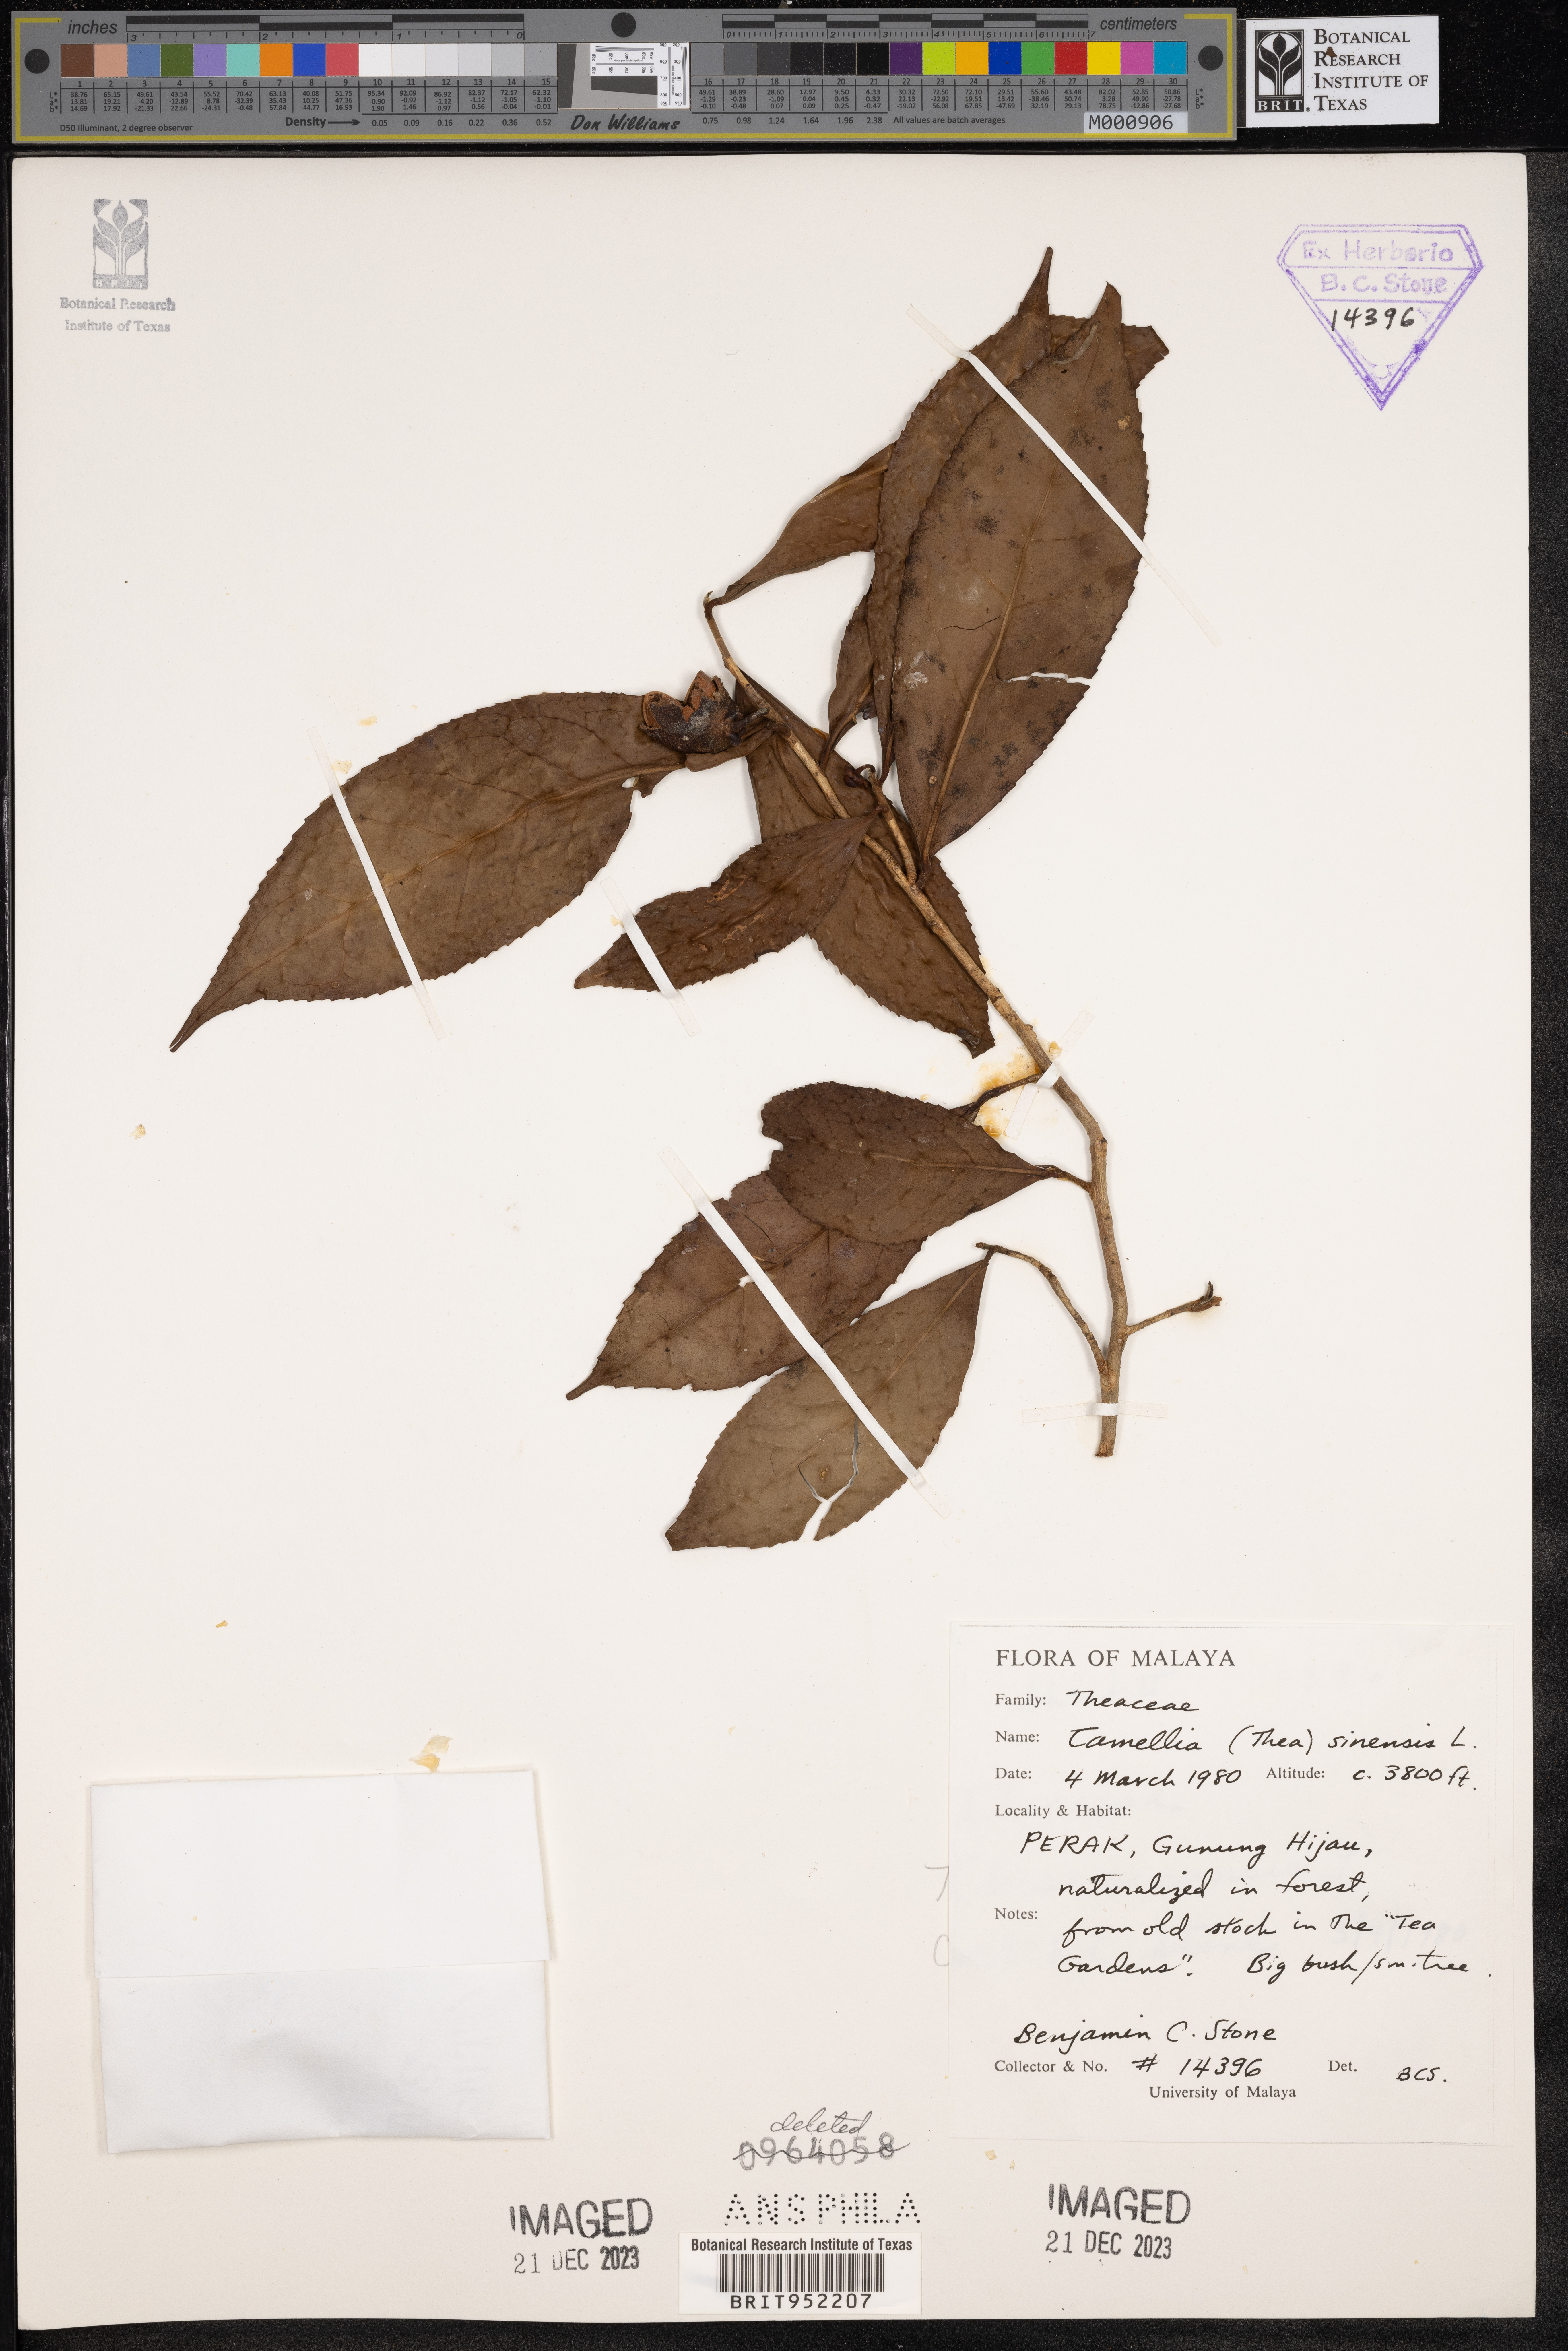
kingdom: Plantae
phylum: Tracheophyta
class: Magnoliopsida
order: Ericales
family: Theaceae
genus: Camellia
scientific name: Camellia
